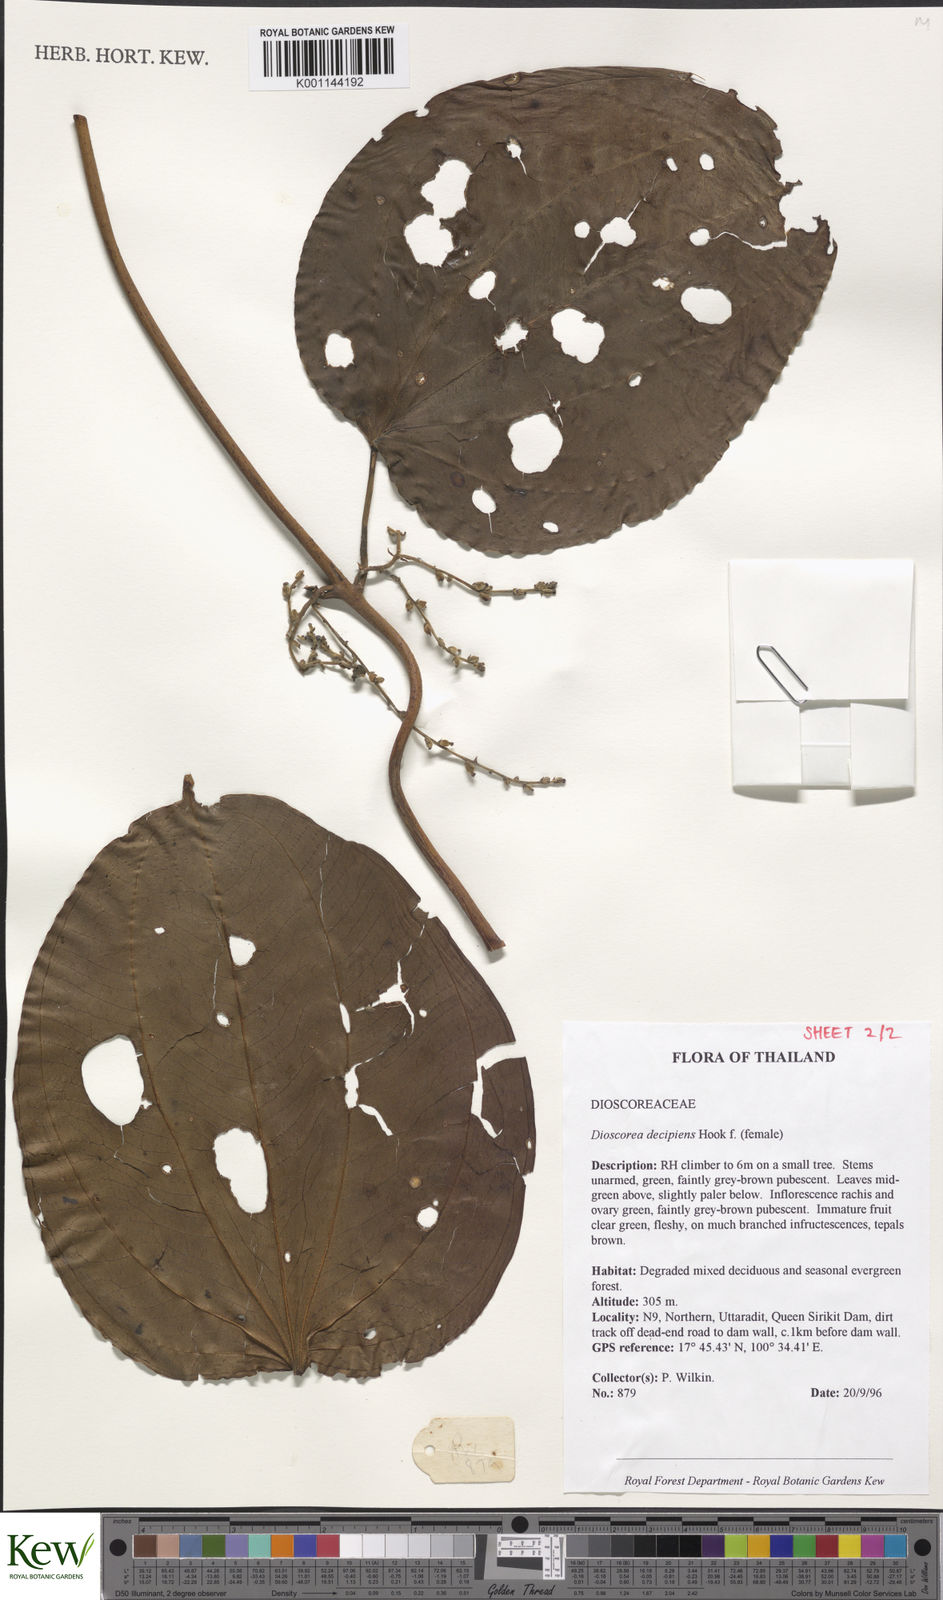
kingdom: Plantae
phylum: Tracheophyta
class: Liliopsida
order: Dioscoreales
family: Dioscoreaceae
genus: Dioscorea
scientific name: Dioscorea decipiens
